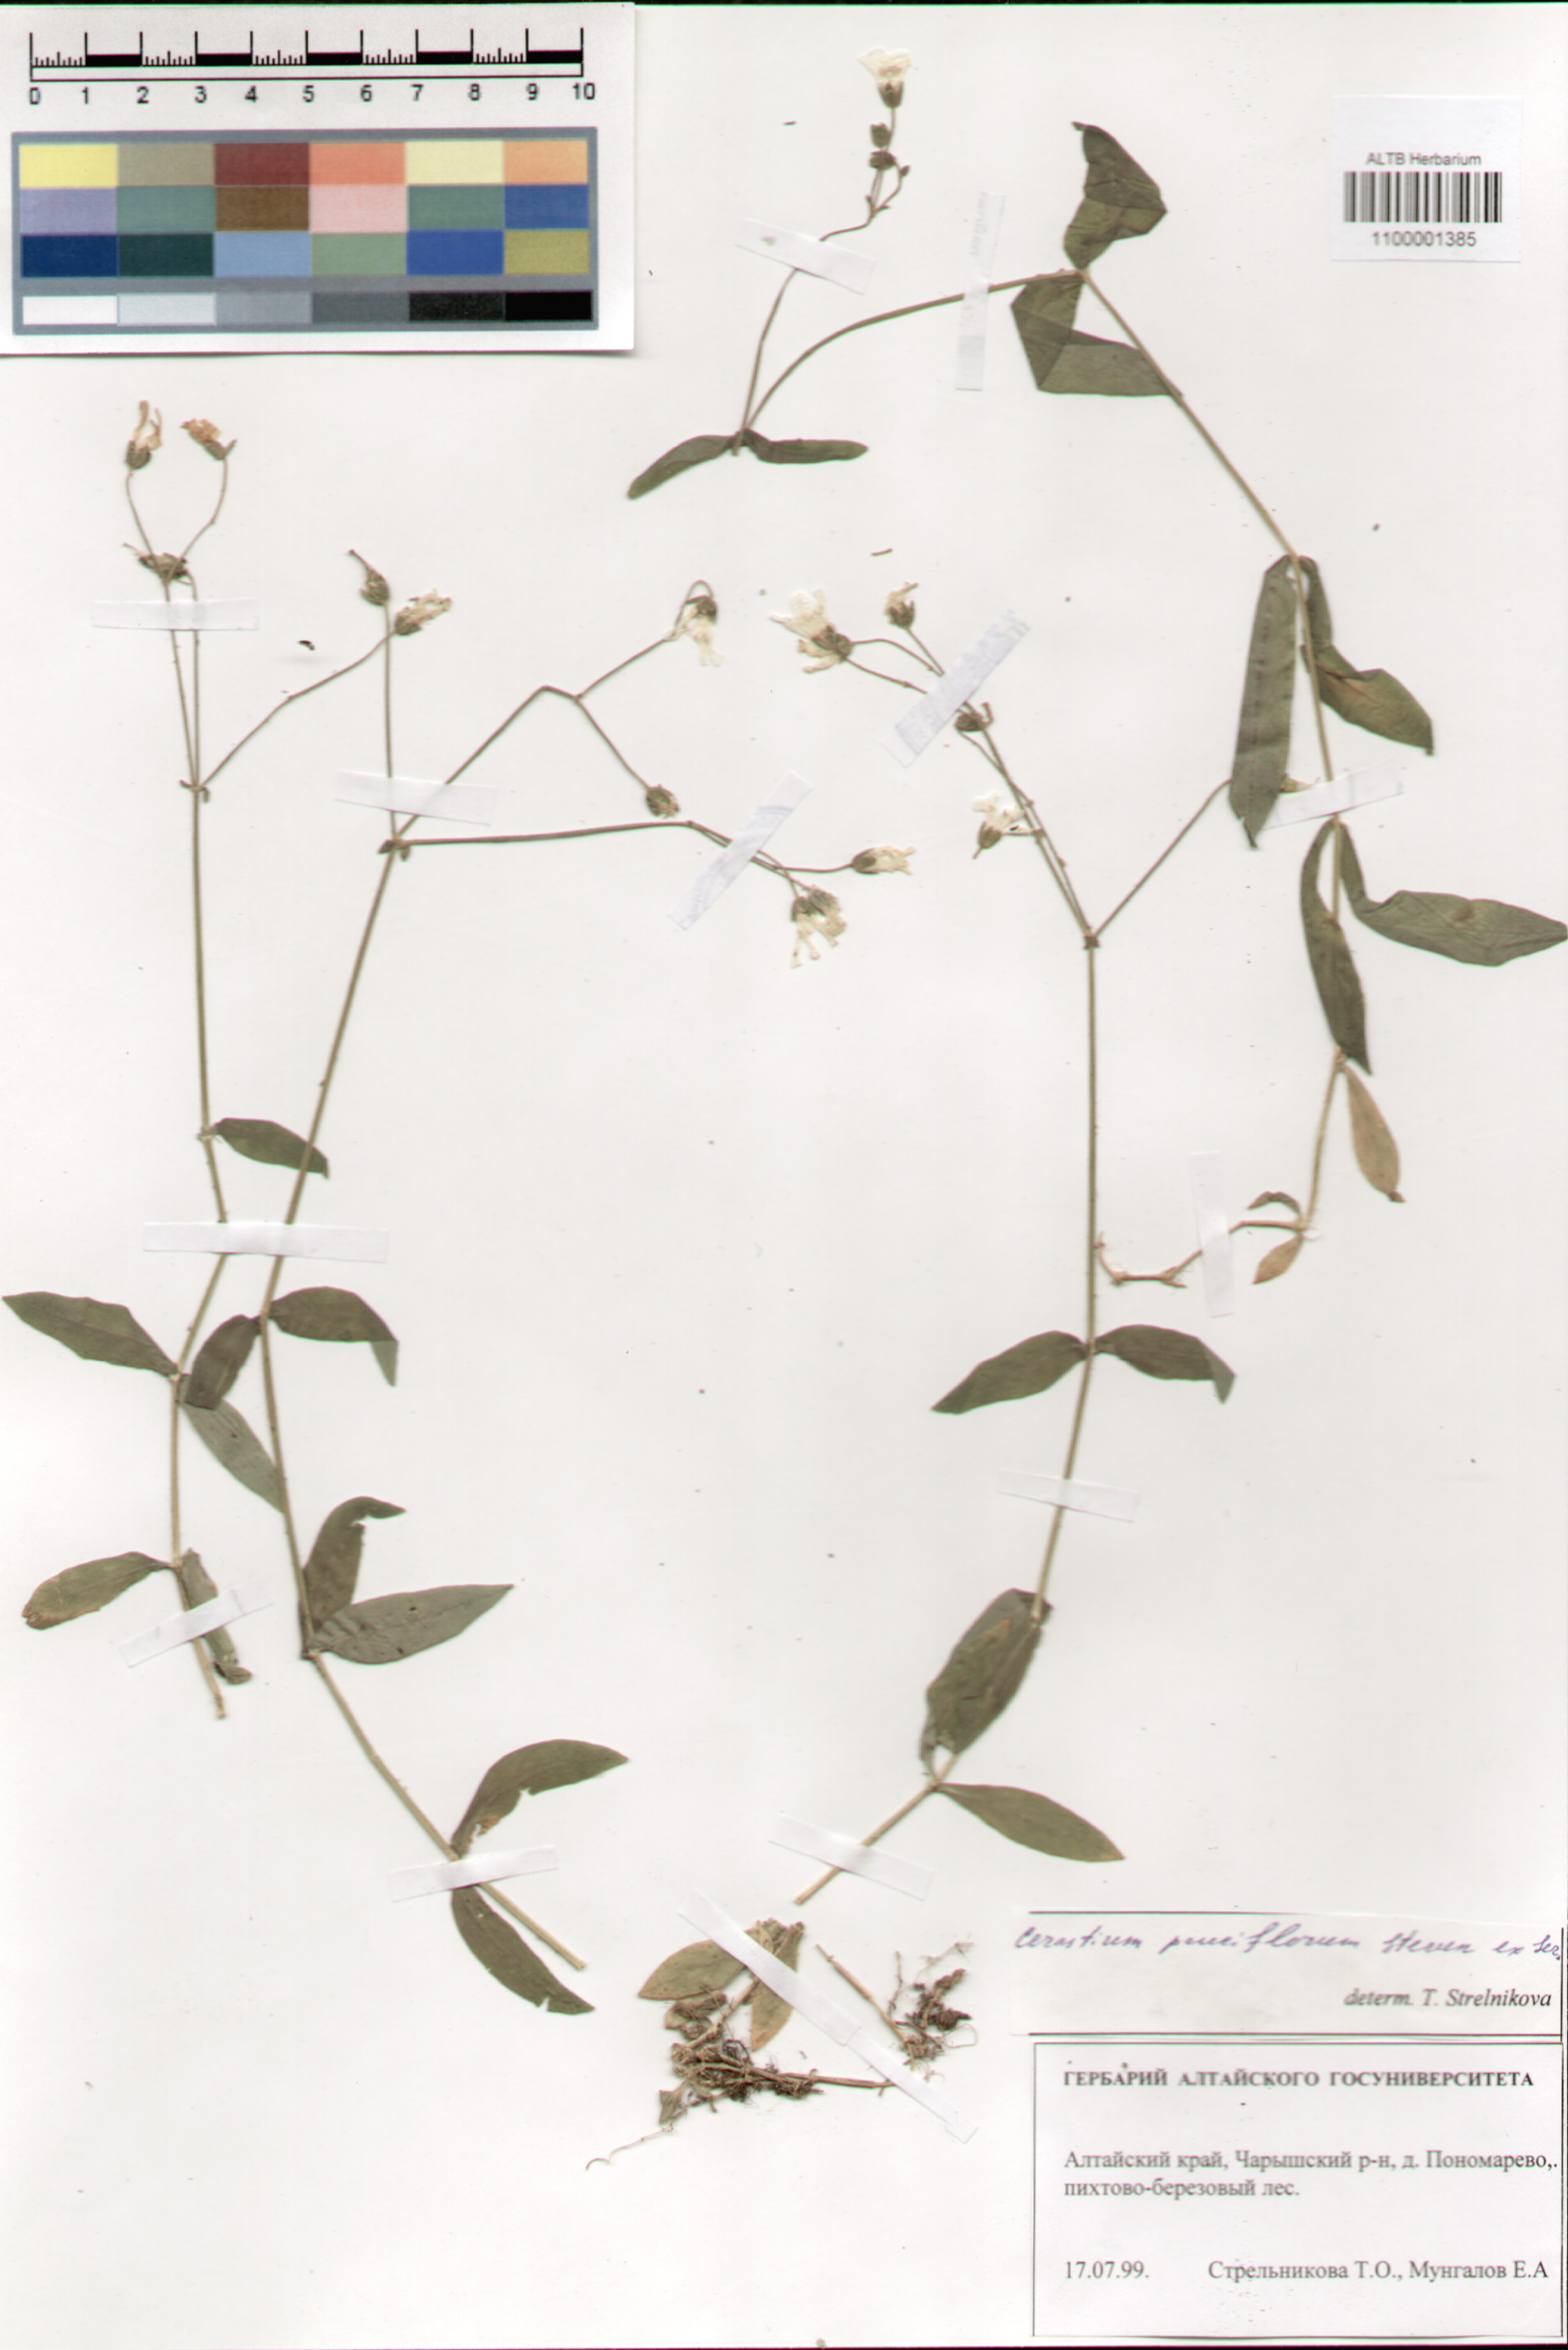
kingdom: Plantae
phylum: Tracheophyta
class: Magnoliopsida
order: Caryophyllales
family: Caryophyllaceae
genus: Cerastium
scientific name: Cerastium pauciflorum
